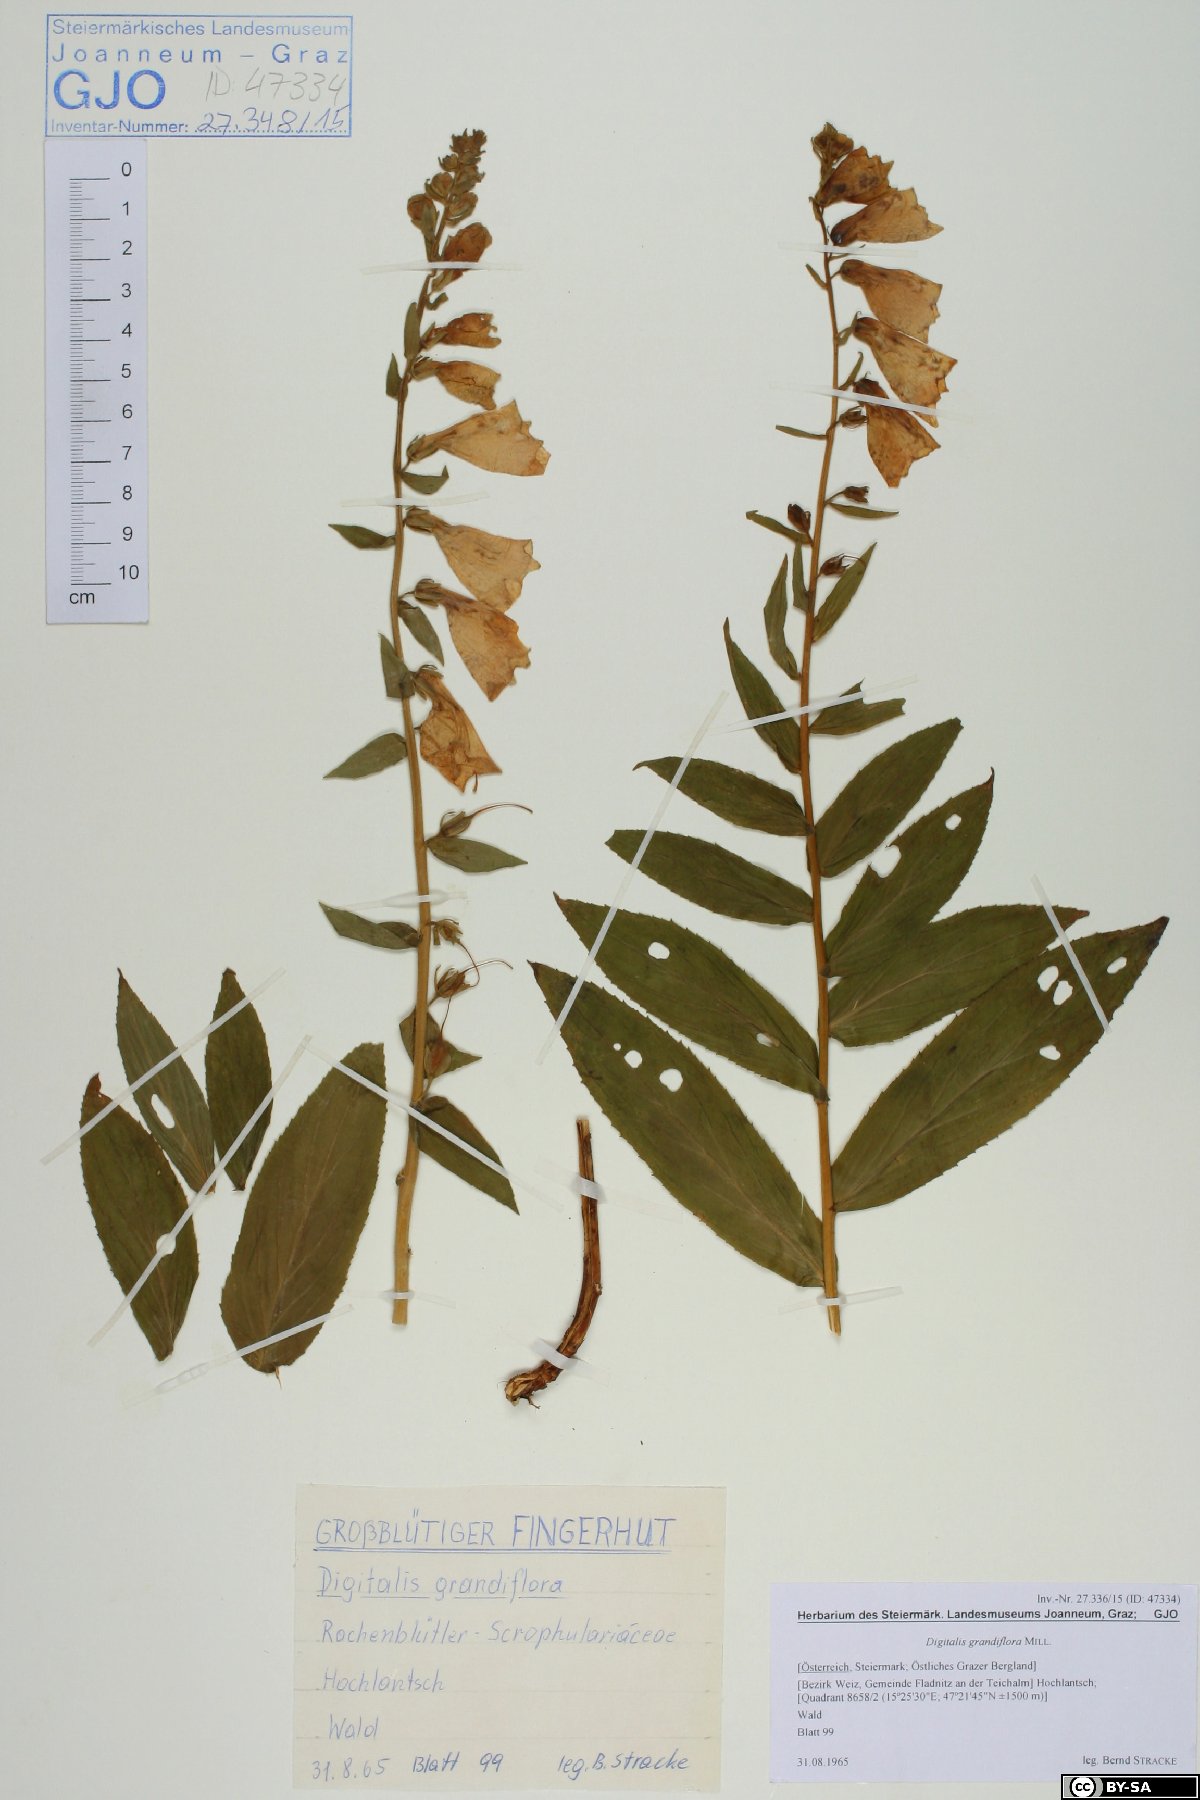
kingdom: Plantae
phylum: Tracheophyta
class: Magnoliopsida
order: Lamiales
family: Plantaginaceae
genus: Digitalis
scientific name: Digitalis grandiflora
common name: Yellow foxglove
